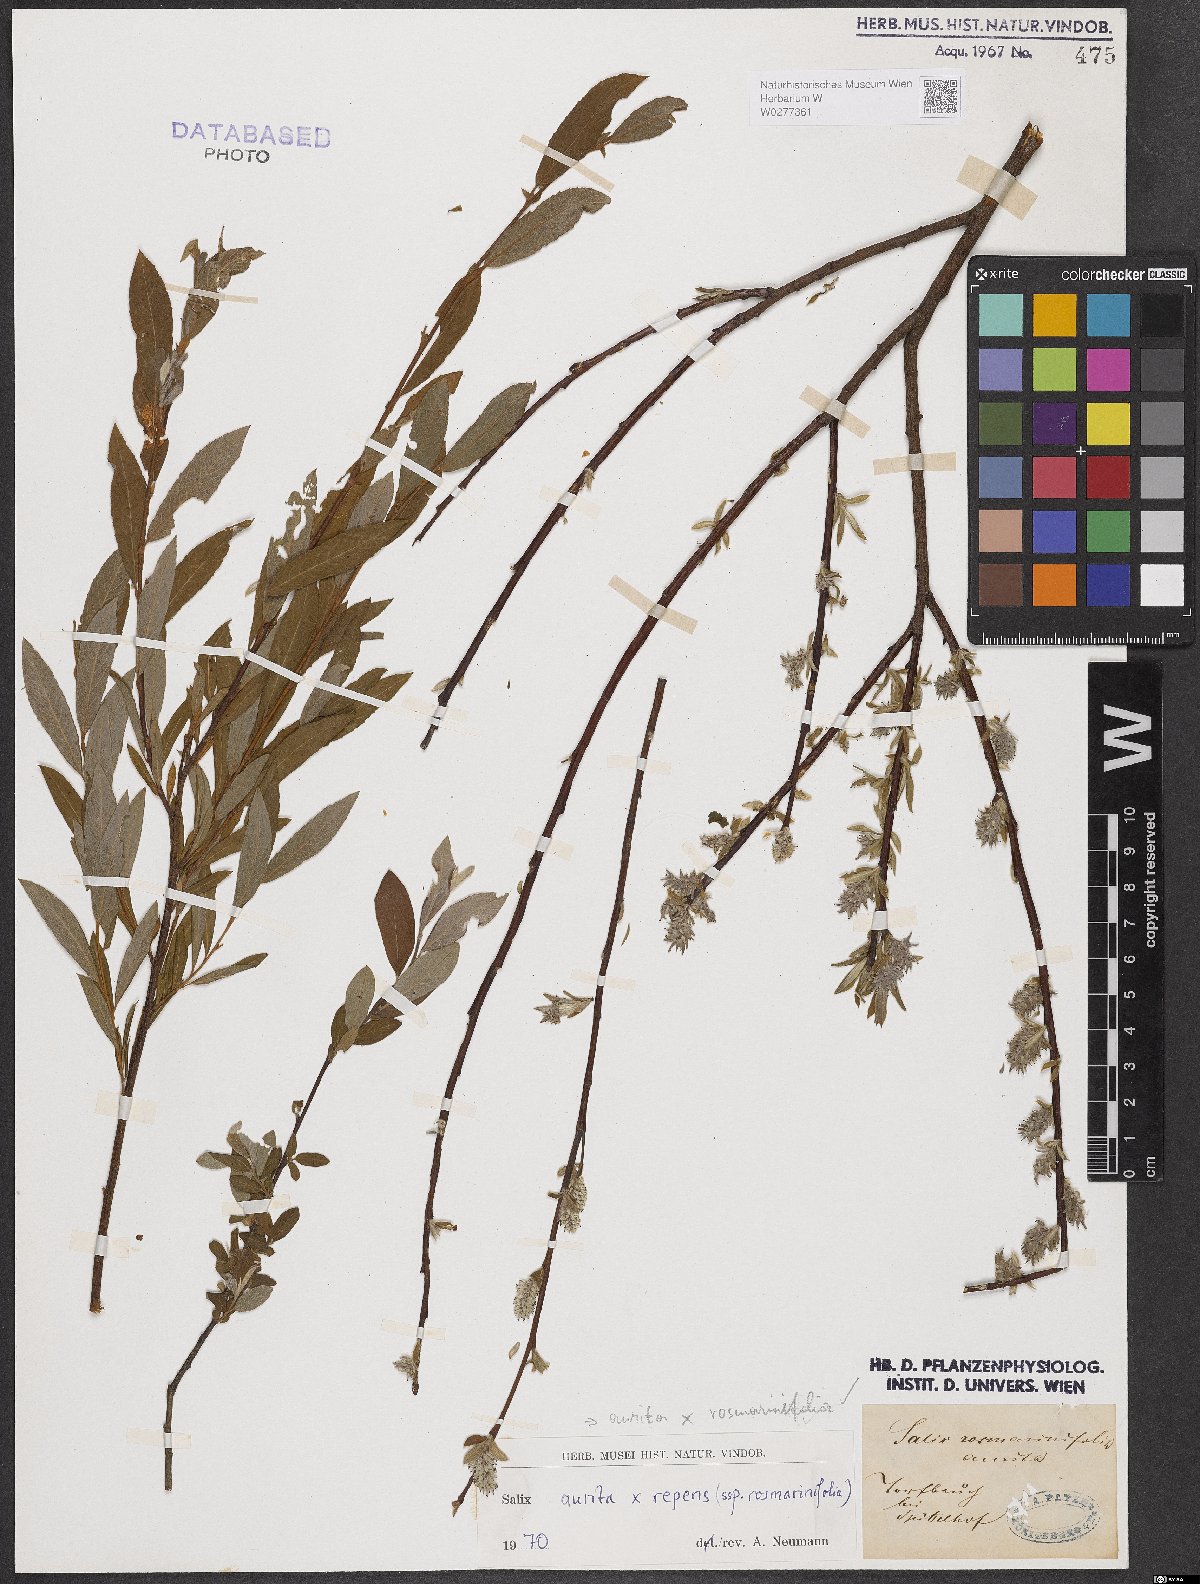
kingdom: Plantae
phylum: Tracheophyta
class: Magnoliopsida
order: Malpighiales
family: Salicaceae
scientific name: Salicaceae
